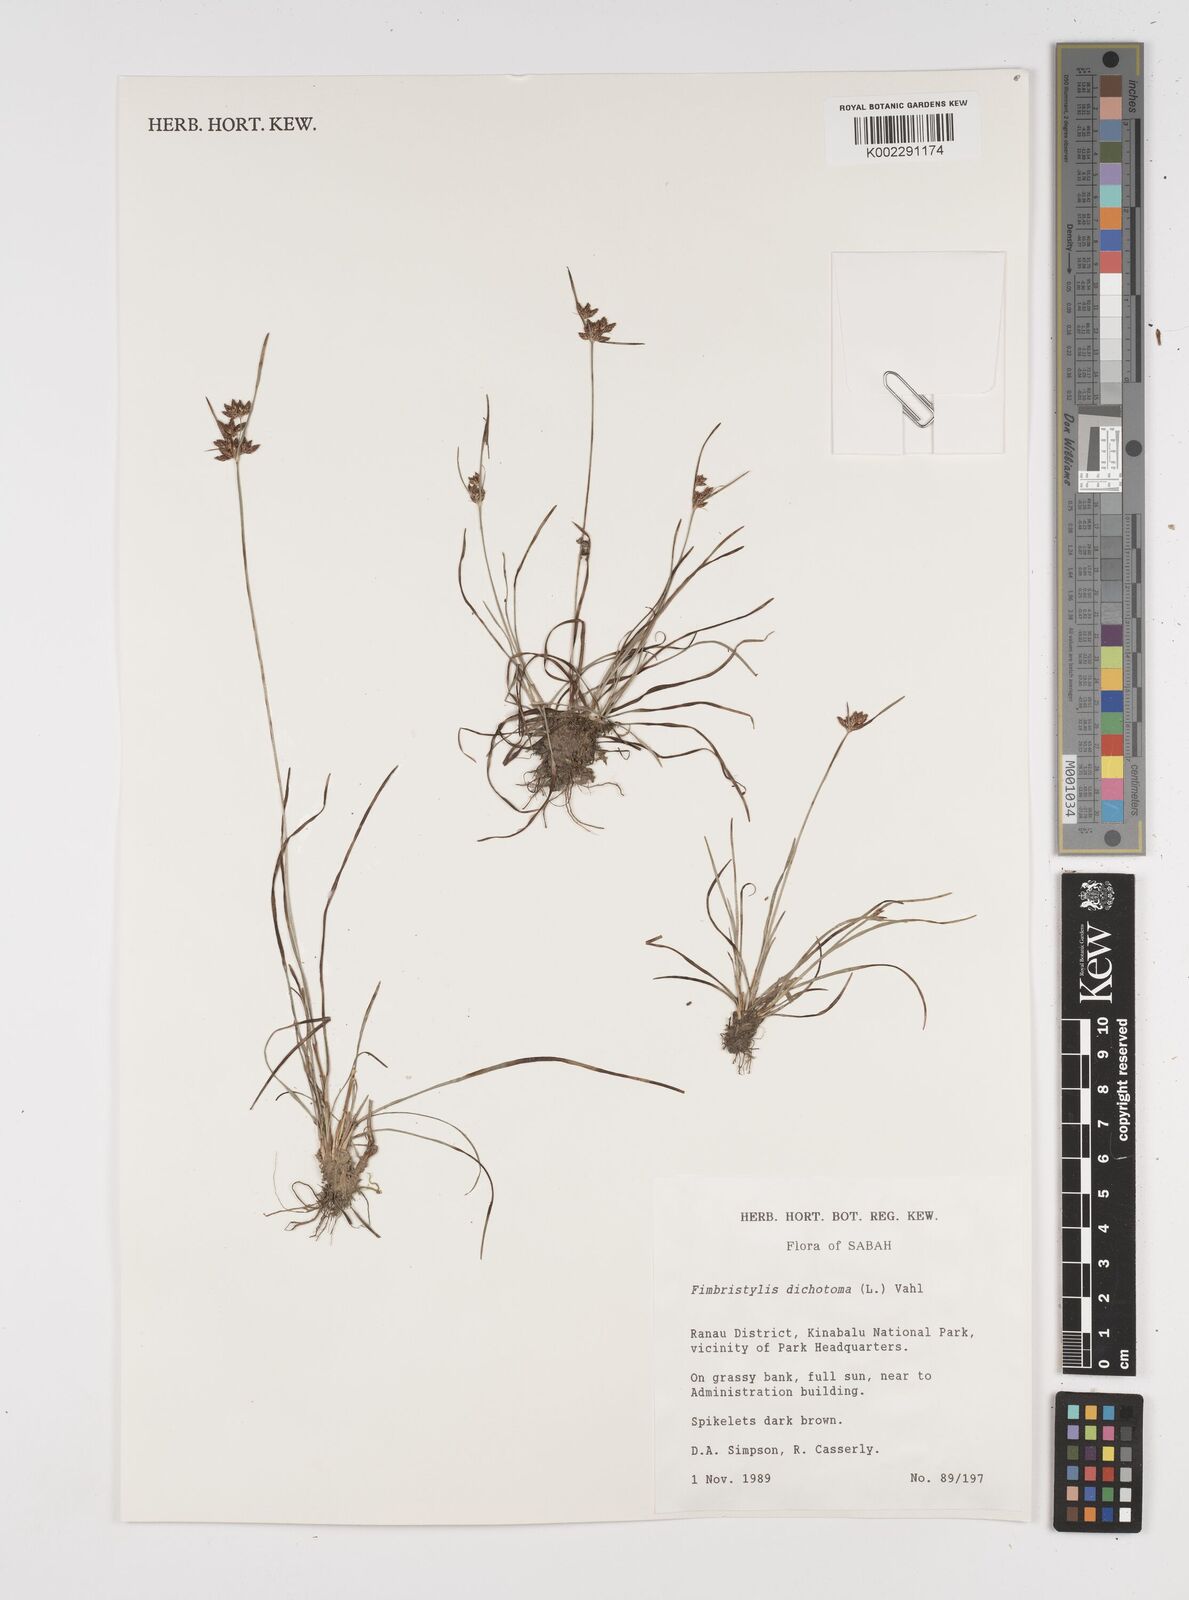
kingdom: Plantae
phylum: Tracheophyta
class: Liliopsida
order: Poales
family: Cyperaceae
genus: Fimbristylis
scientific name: Fimbristylis dichotoma
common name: Forked fimbry
